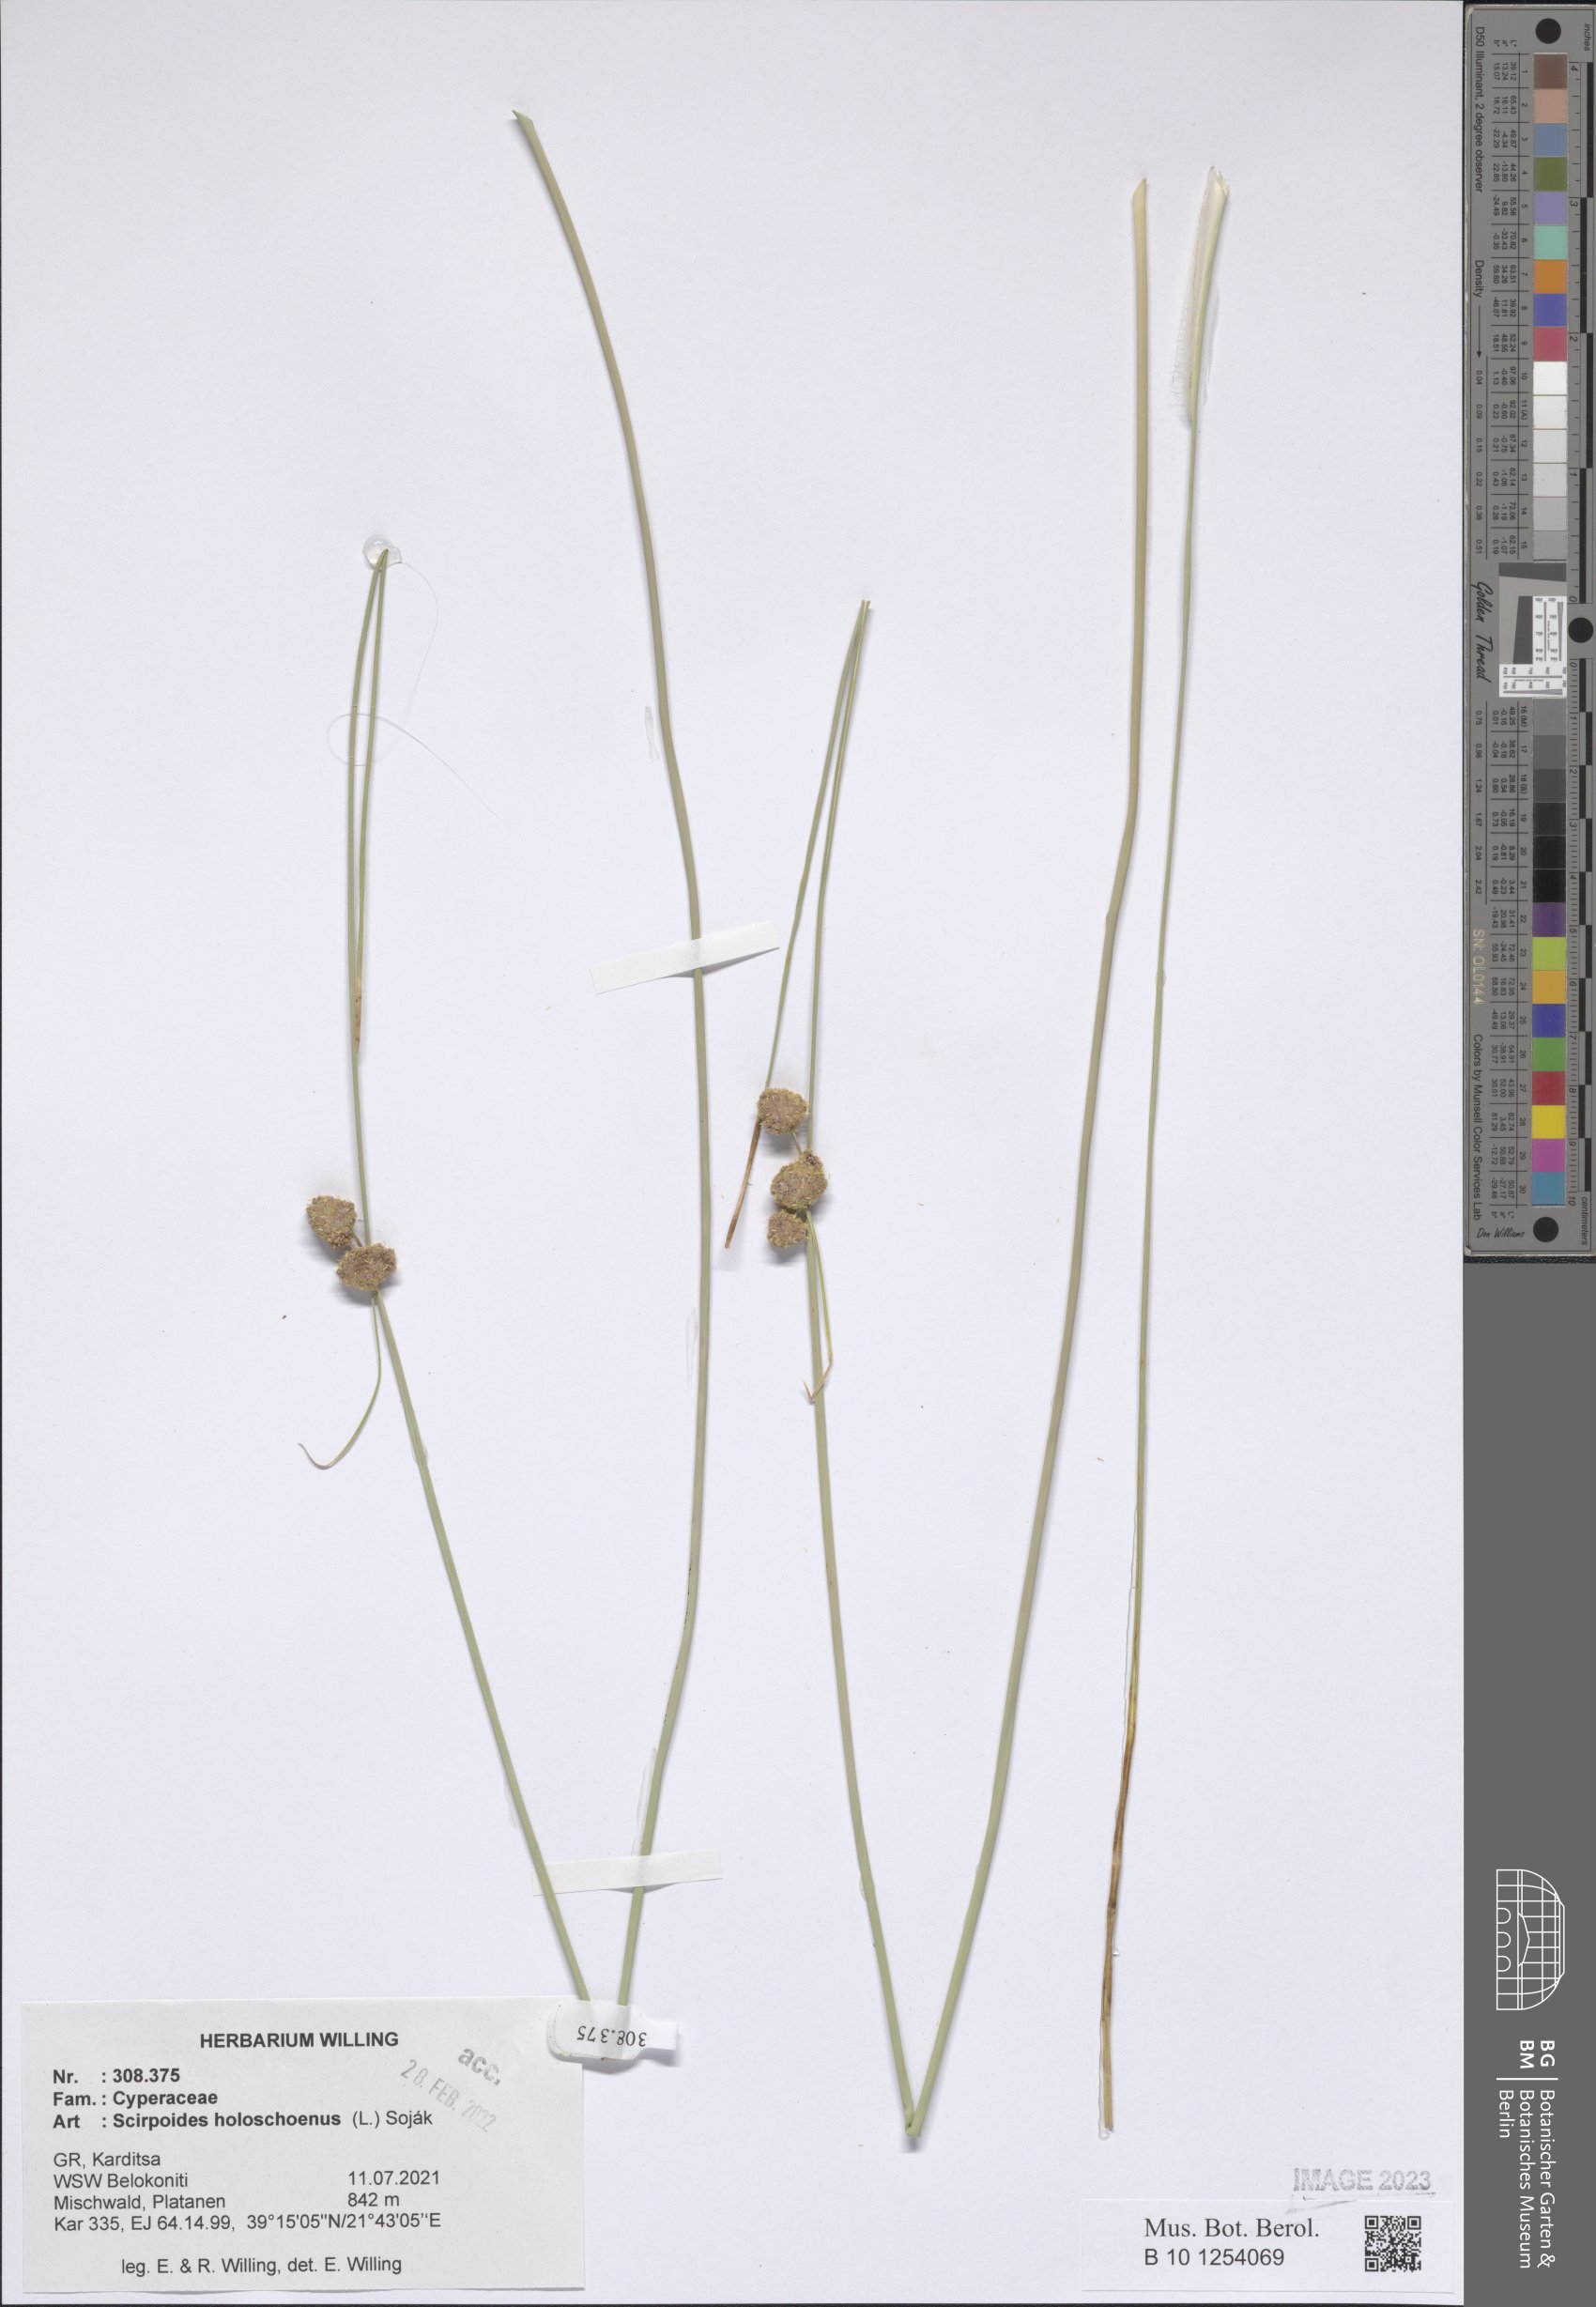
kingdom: Plantae
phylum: Tracheophyta
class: Liliopsida
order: Poales
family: Cyperaceae
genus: Scirpoides
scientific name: Scirpoides
